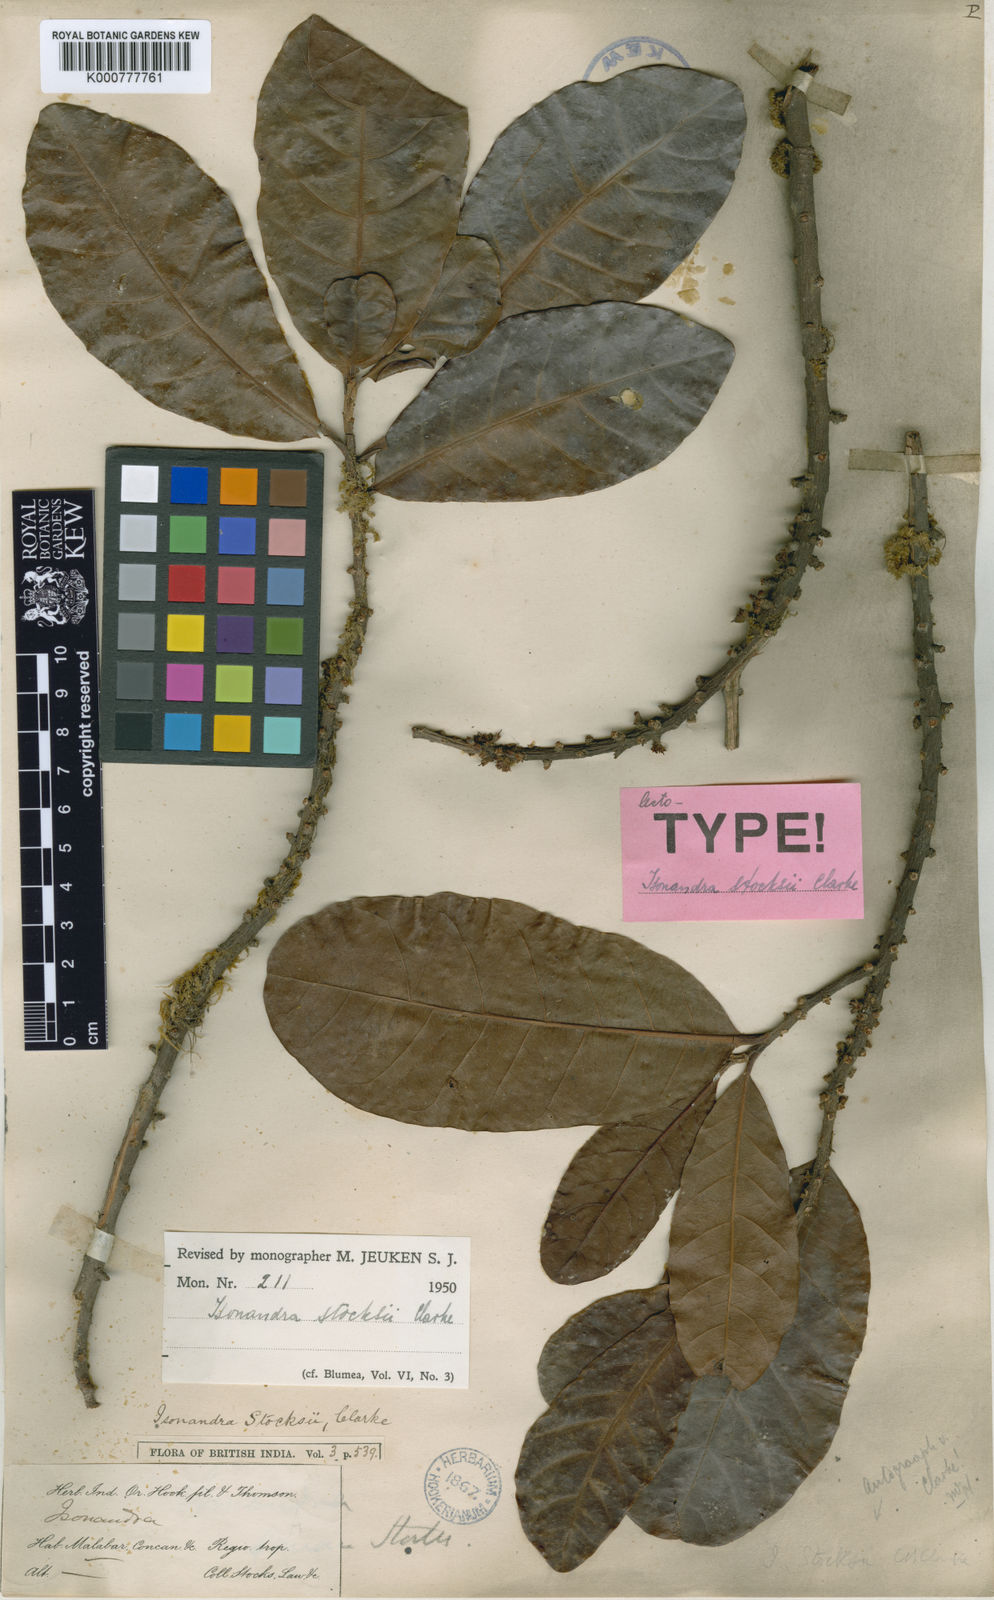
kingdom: Plantae
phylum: Tracheophyta
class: Magnoliopsida
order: Ericales
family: Sapotaceae
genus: Isonandra
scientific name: Isonandra stocksii
